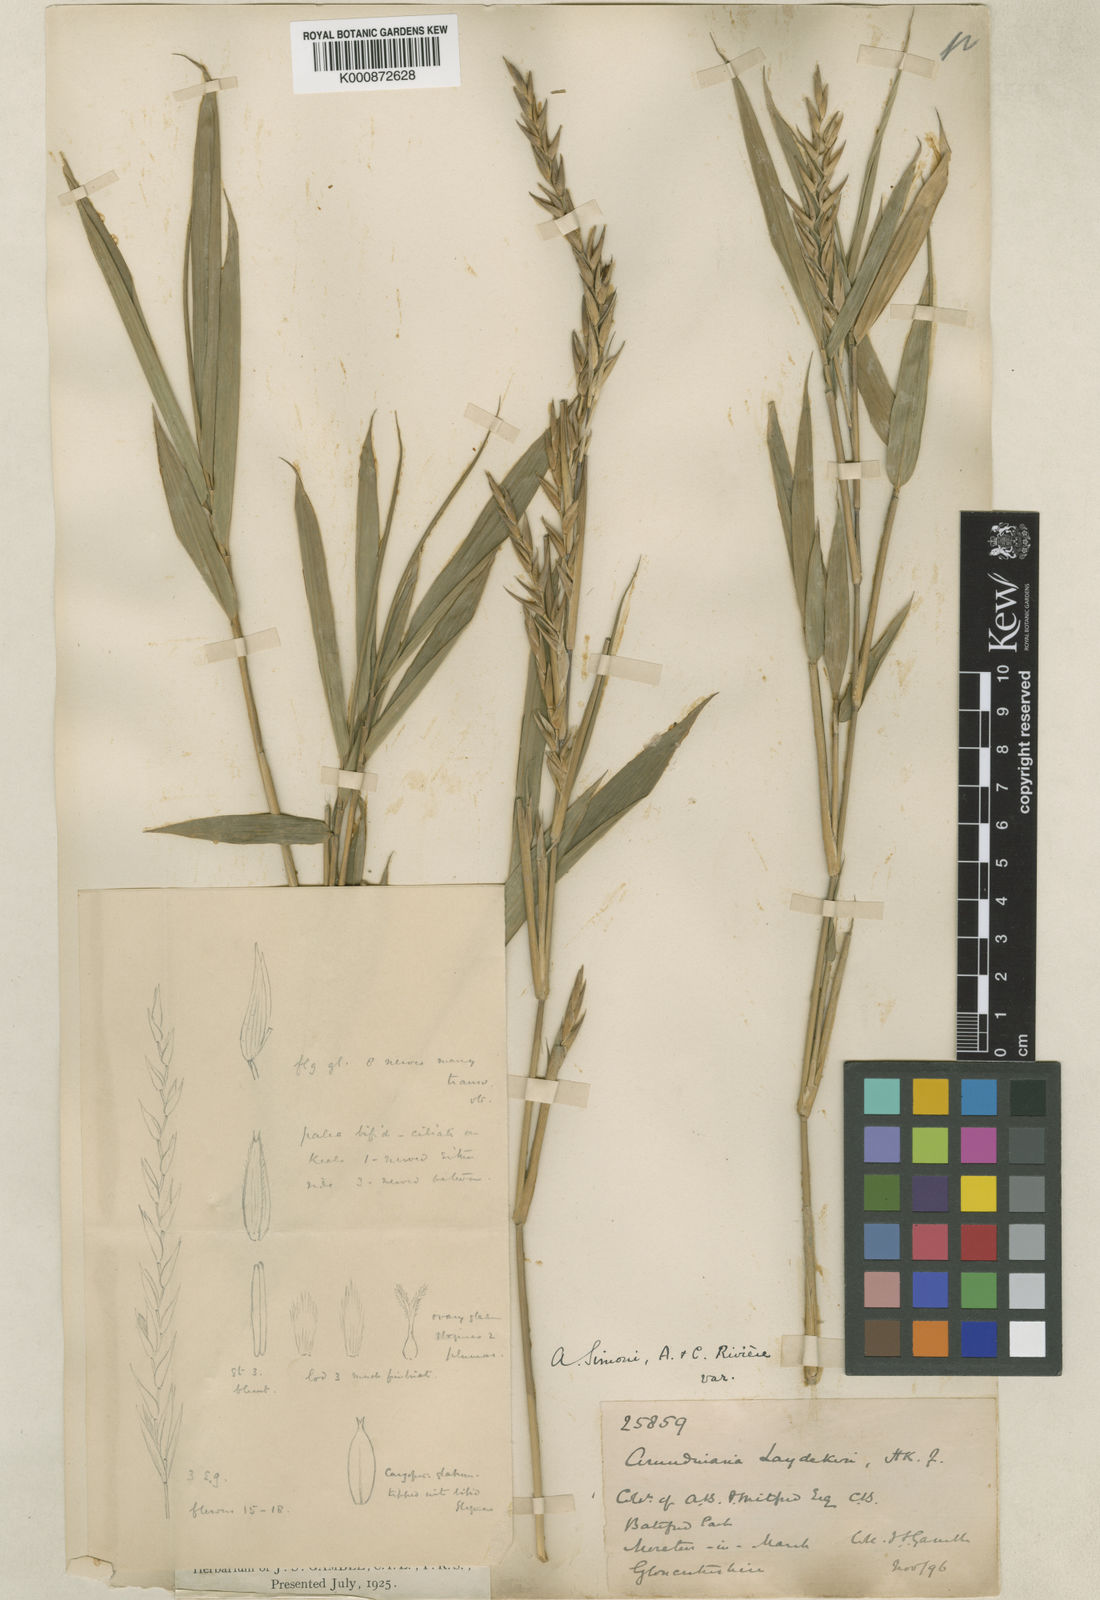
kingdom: Plantae
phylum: Tracheophyta
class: Liliopsida
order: Poales
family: Poaceae
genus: Pleioblastus
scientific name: Pleioblastus argenteostriatus
